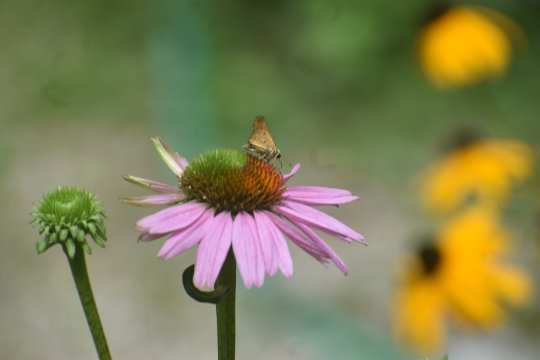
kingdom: Animalia
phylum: Arthropoda
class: Insecta
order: Lepidoptera
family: Hesperiidae
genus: Hylephila
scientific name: Hylephila phyleus
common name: Fiery Skipper
